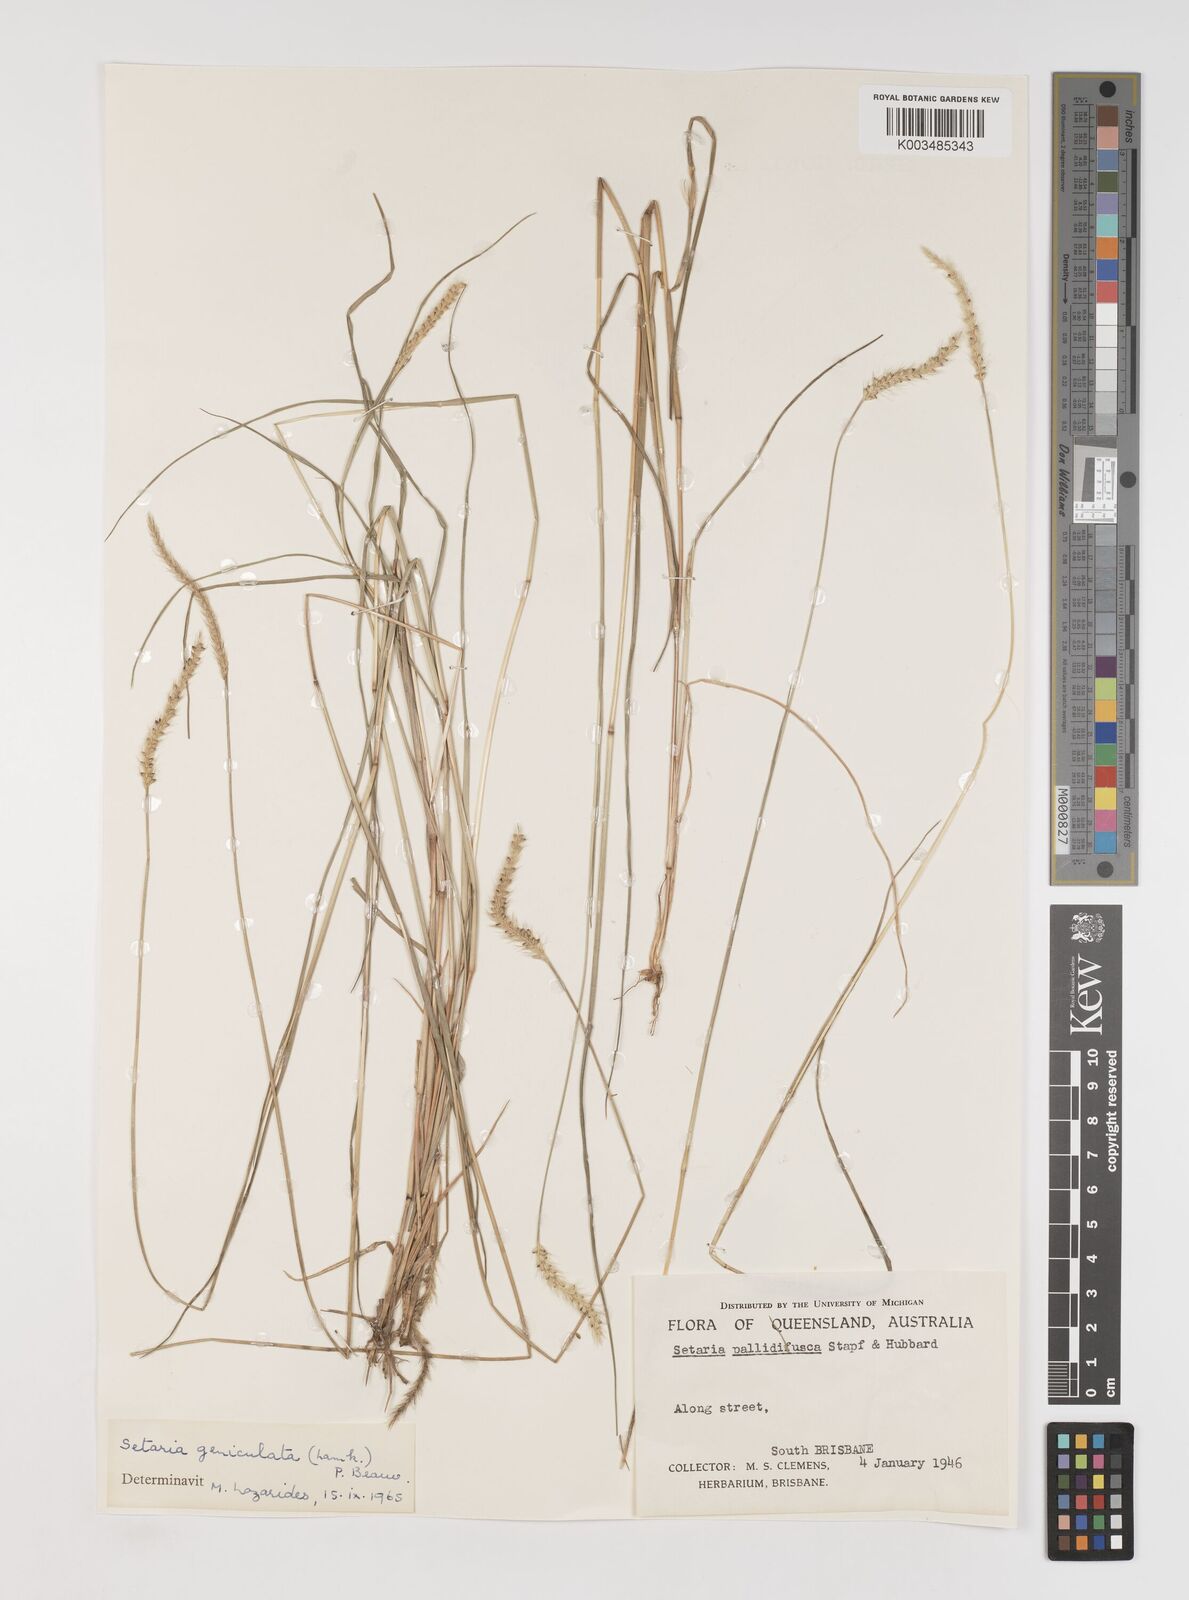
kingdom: Plantae
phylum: Tracheophyta
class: Liliopsida
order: Poales
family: Poaceae
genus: Setaria
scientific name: Setaria parviflora
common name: Knotroot bristle-grass
